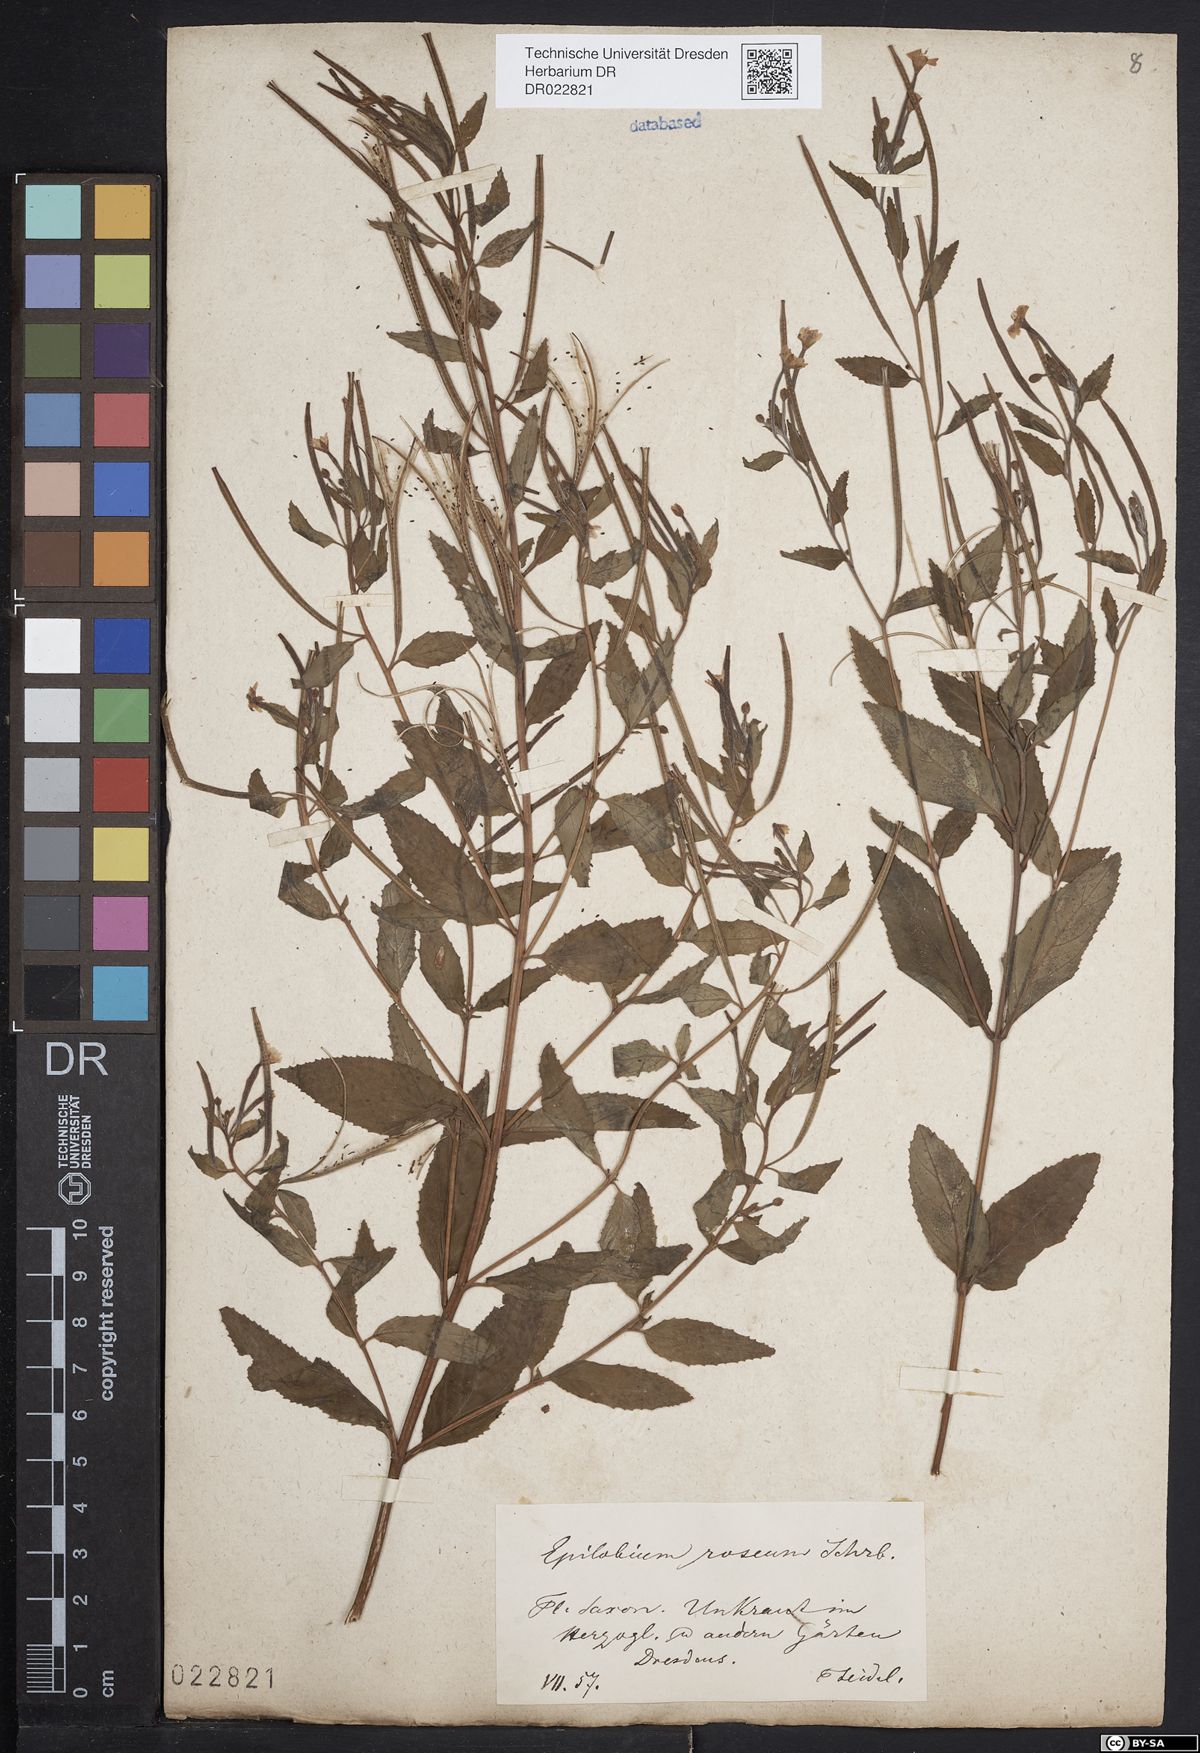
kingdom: Plantae
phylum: Tracheophyta
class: Magnoliopsida
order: Myrtales
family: Onagraceae
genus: Epilobium
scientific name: Epilobium roseum
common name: Pale willowherb
